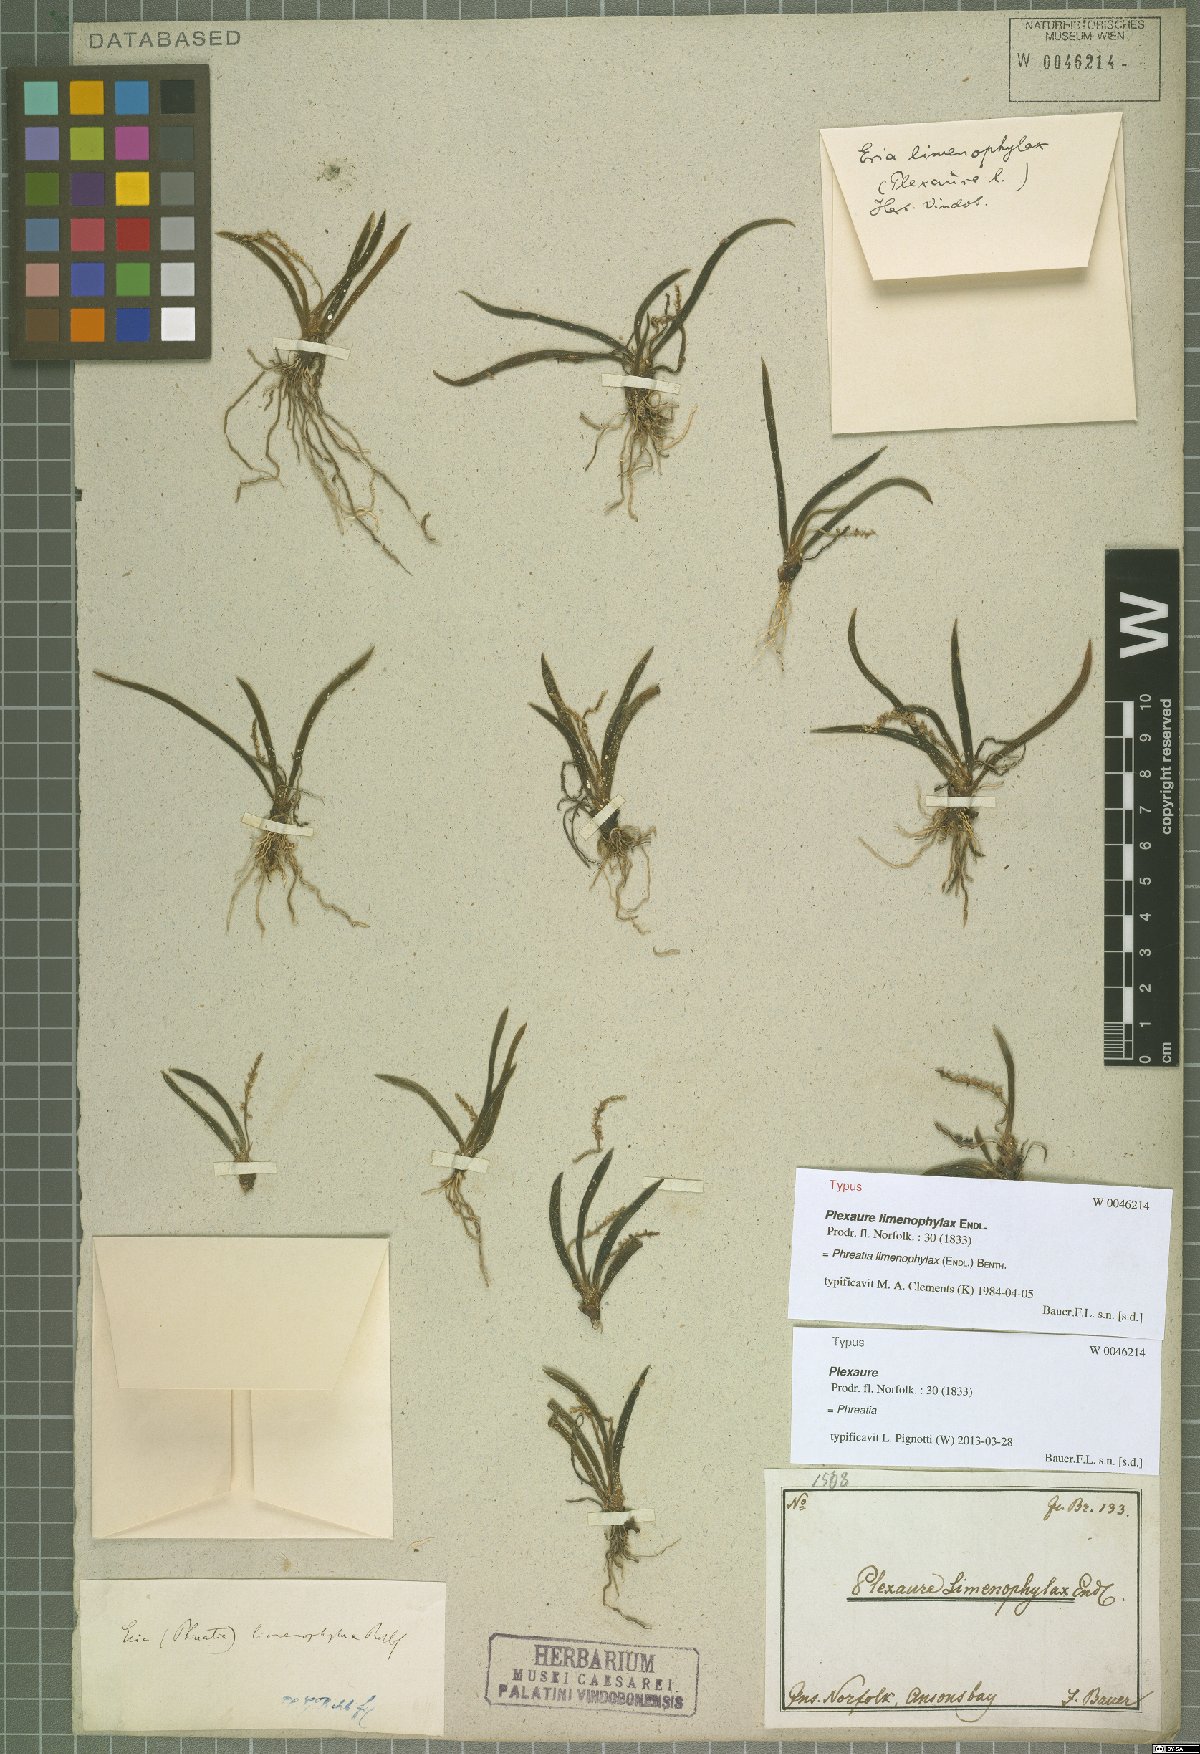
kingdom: Plantae
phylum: Tracheophyta
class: Liliopsida
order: Asparagales
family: Orchidaceae
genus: Phreatia
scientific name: Phreatia crassiuscula
